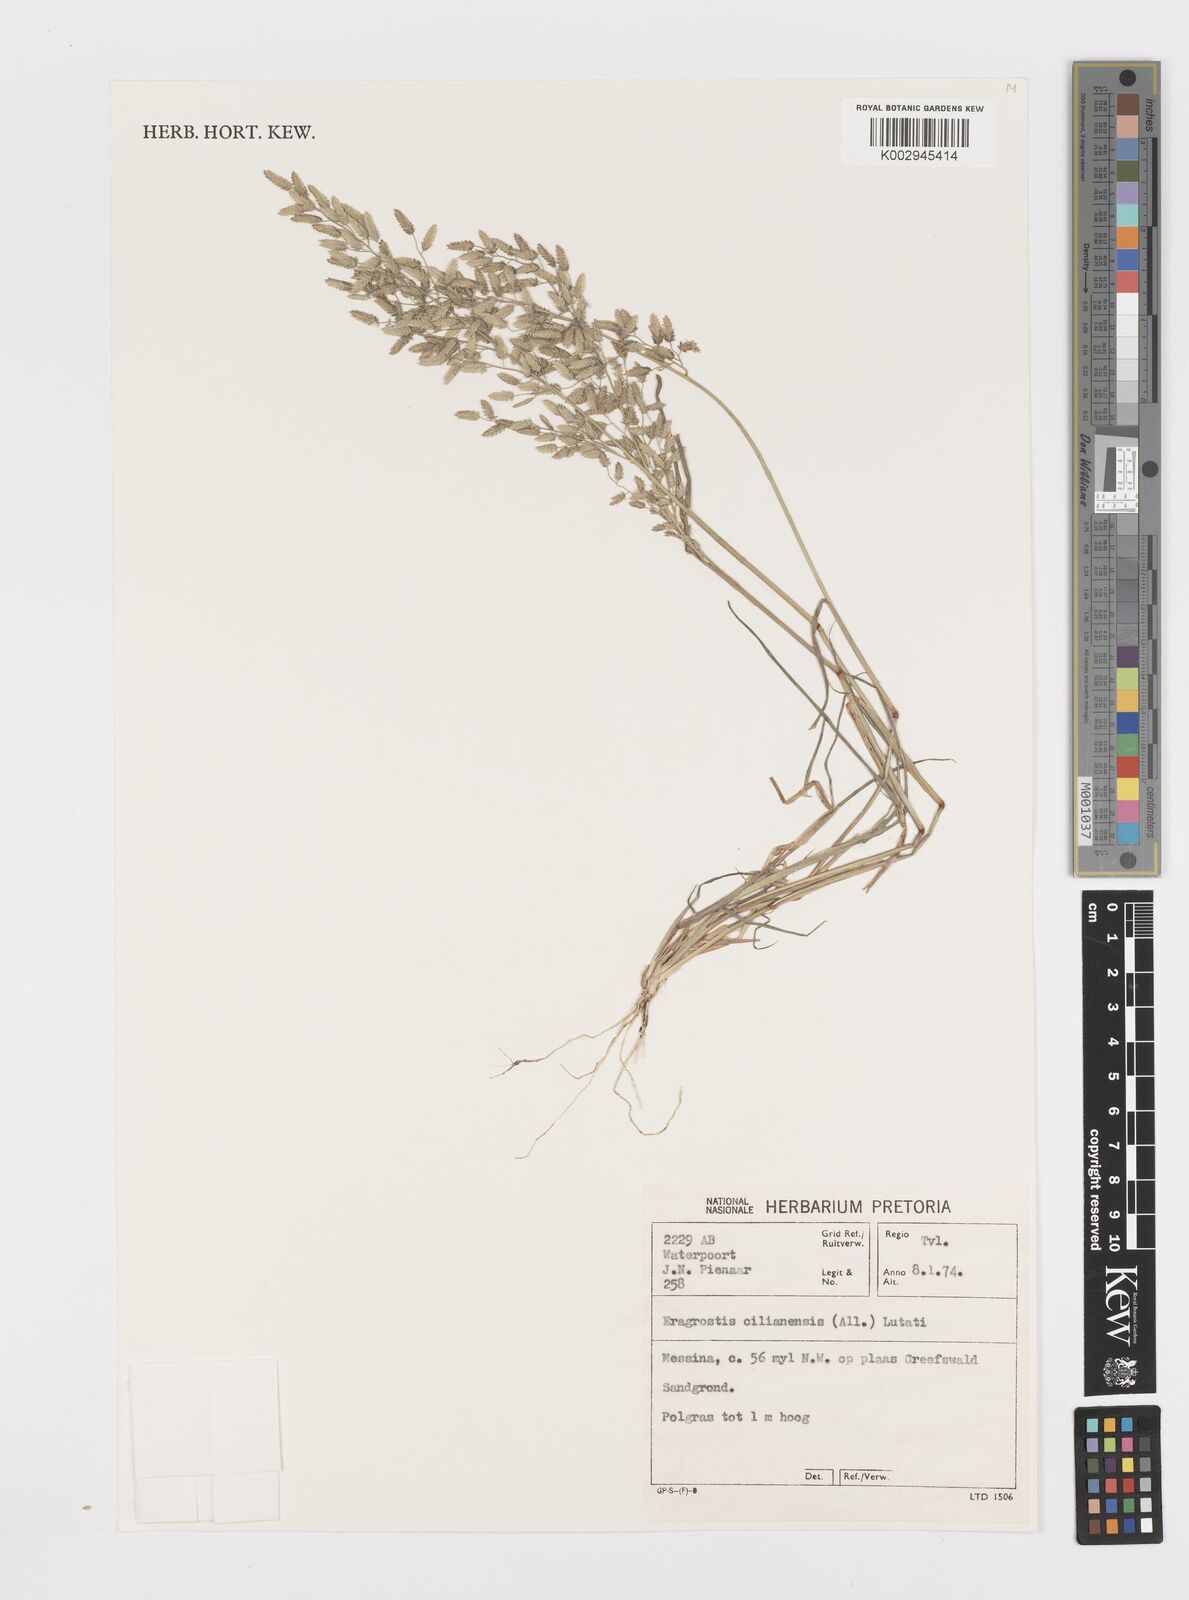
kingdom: Plantae
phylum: Tracheophyta
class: Liliopsida
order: Poales
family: Poaceae
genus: Eragrostis
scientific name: Eragrostis cilianensis
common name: Stinkgrass
